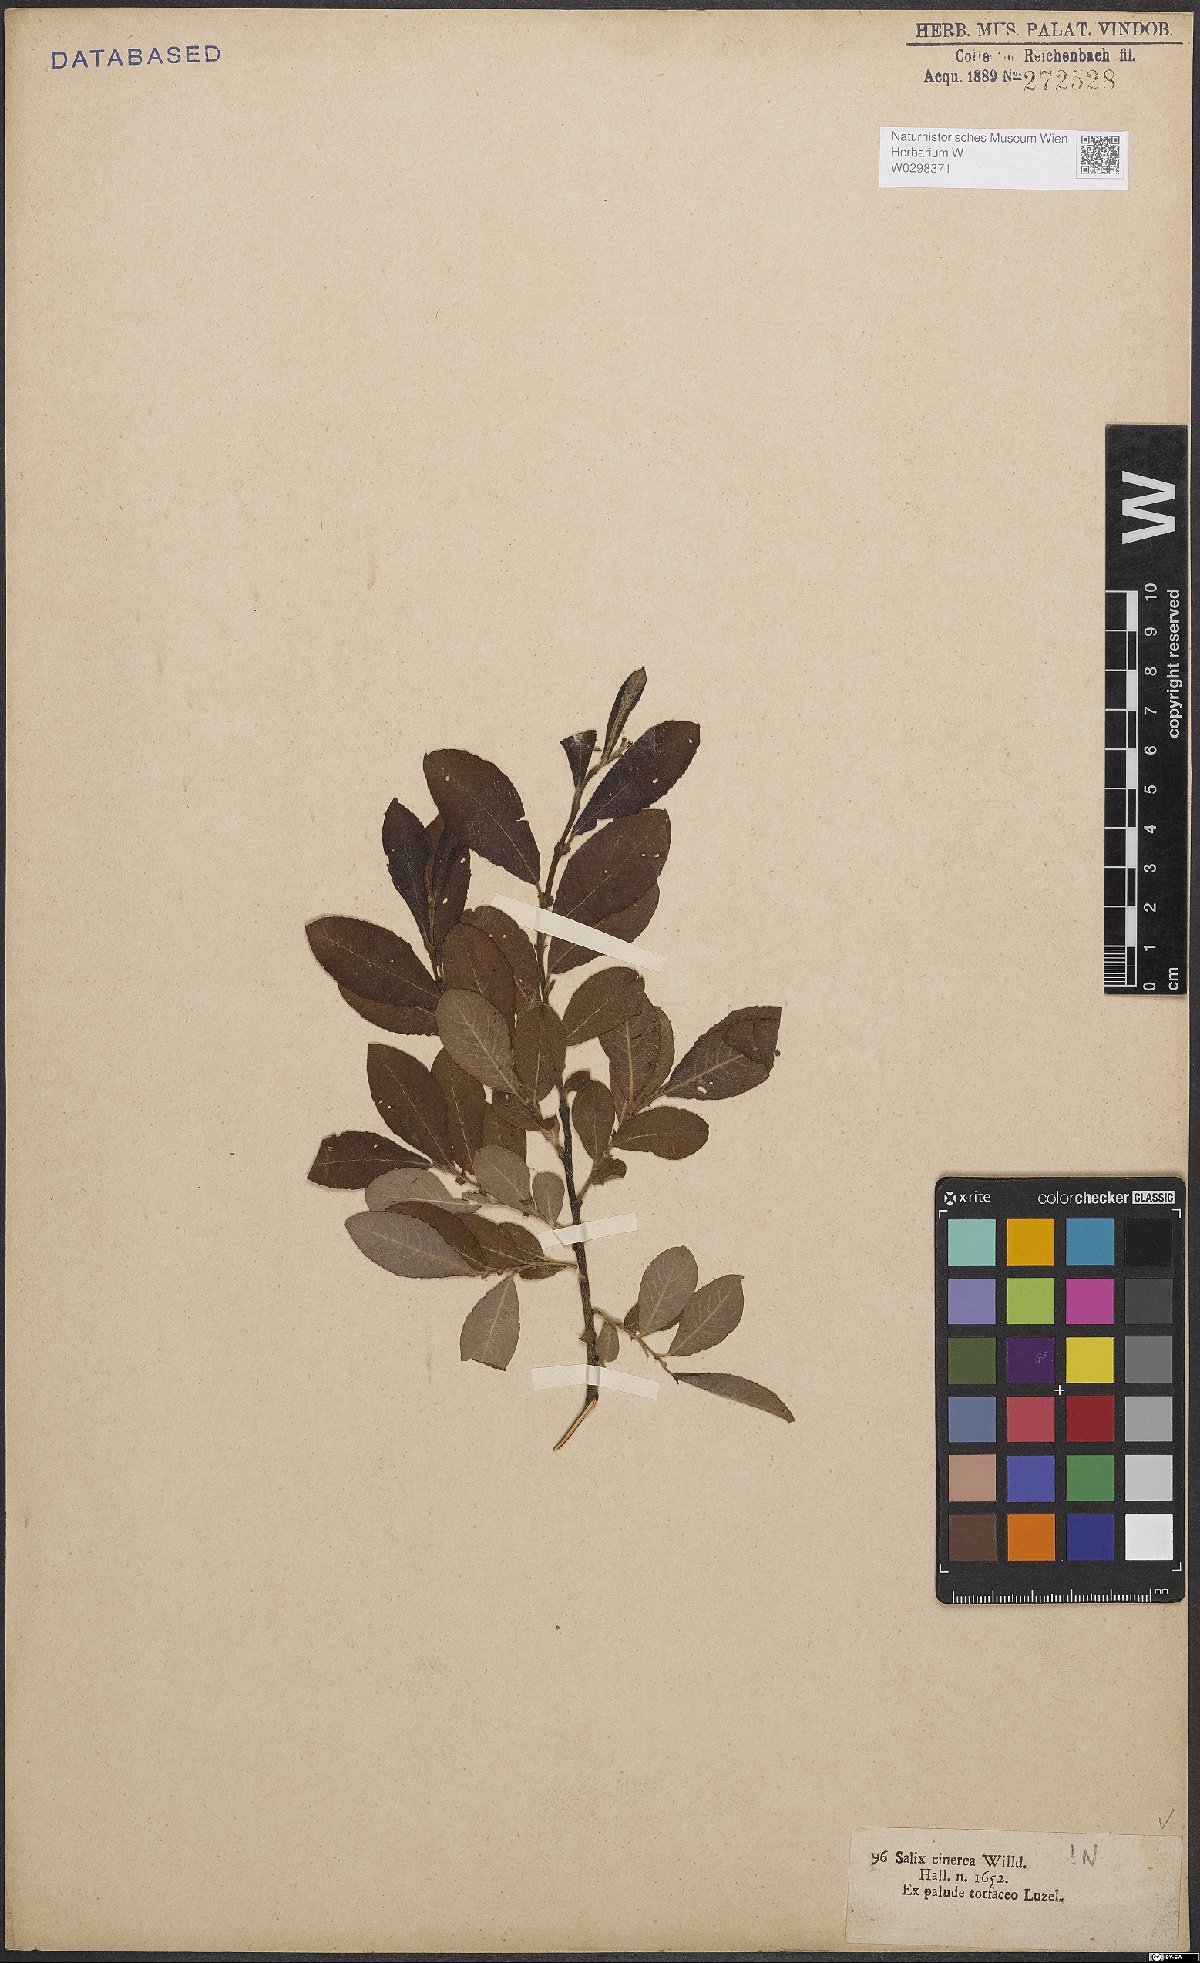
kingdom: Plantae
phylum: Tracheophyta
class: Magnoliopsida
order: Malpighiales
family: Salicaceae
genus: Salix
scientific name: Salix cinerea
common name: Common sallow
